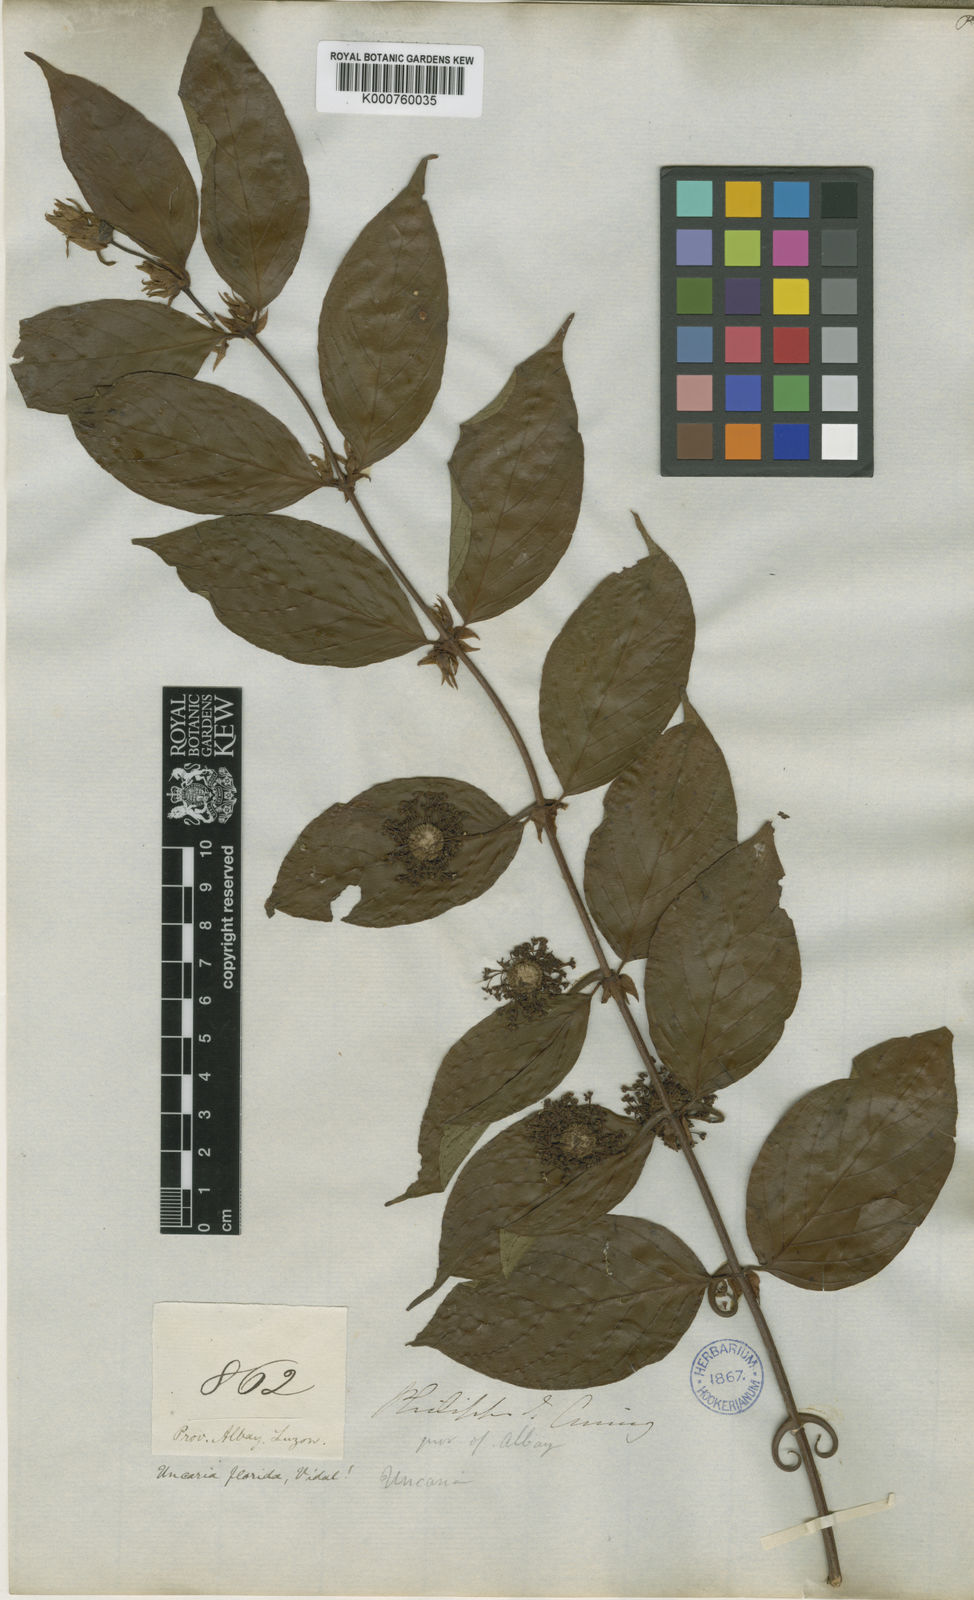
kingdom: Plantae
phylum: Tracheophyta
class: Magnoliopsida
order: Gentianales
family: Rubiaceae
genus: Uncaria
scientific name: Uncaria lanosa
